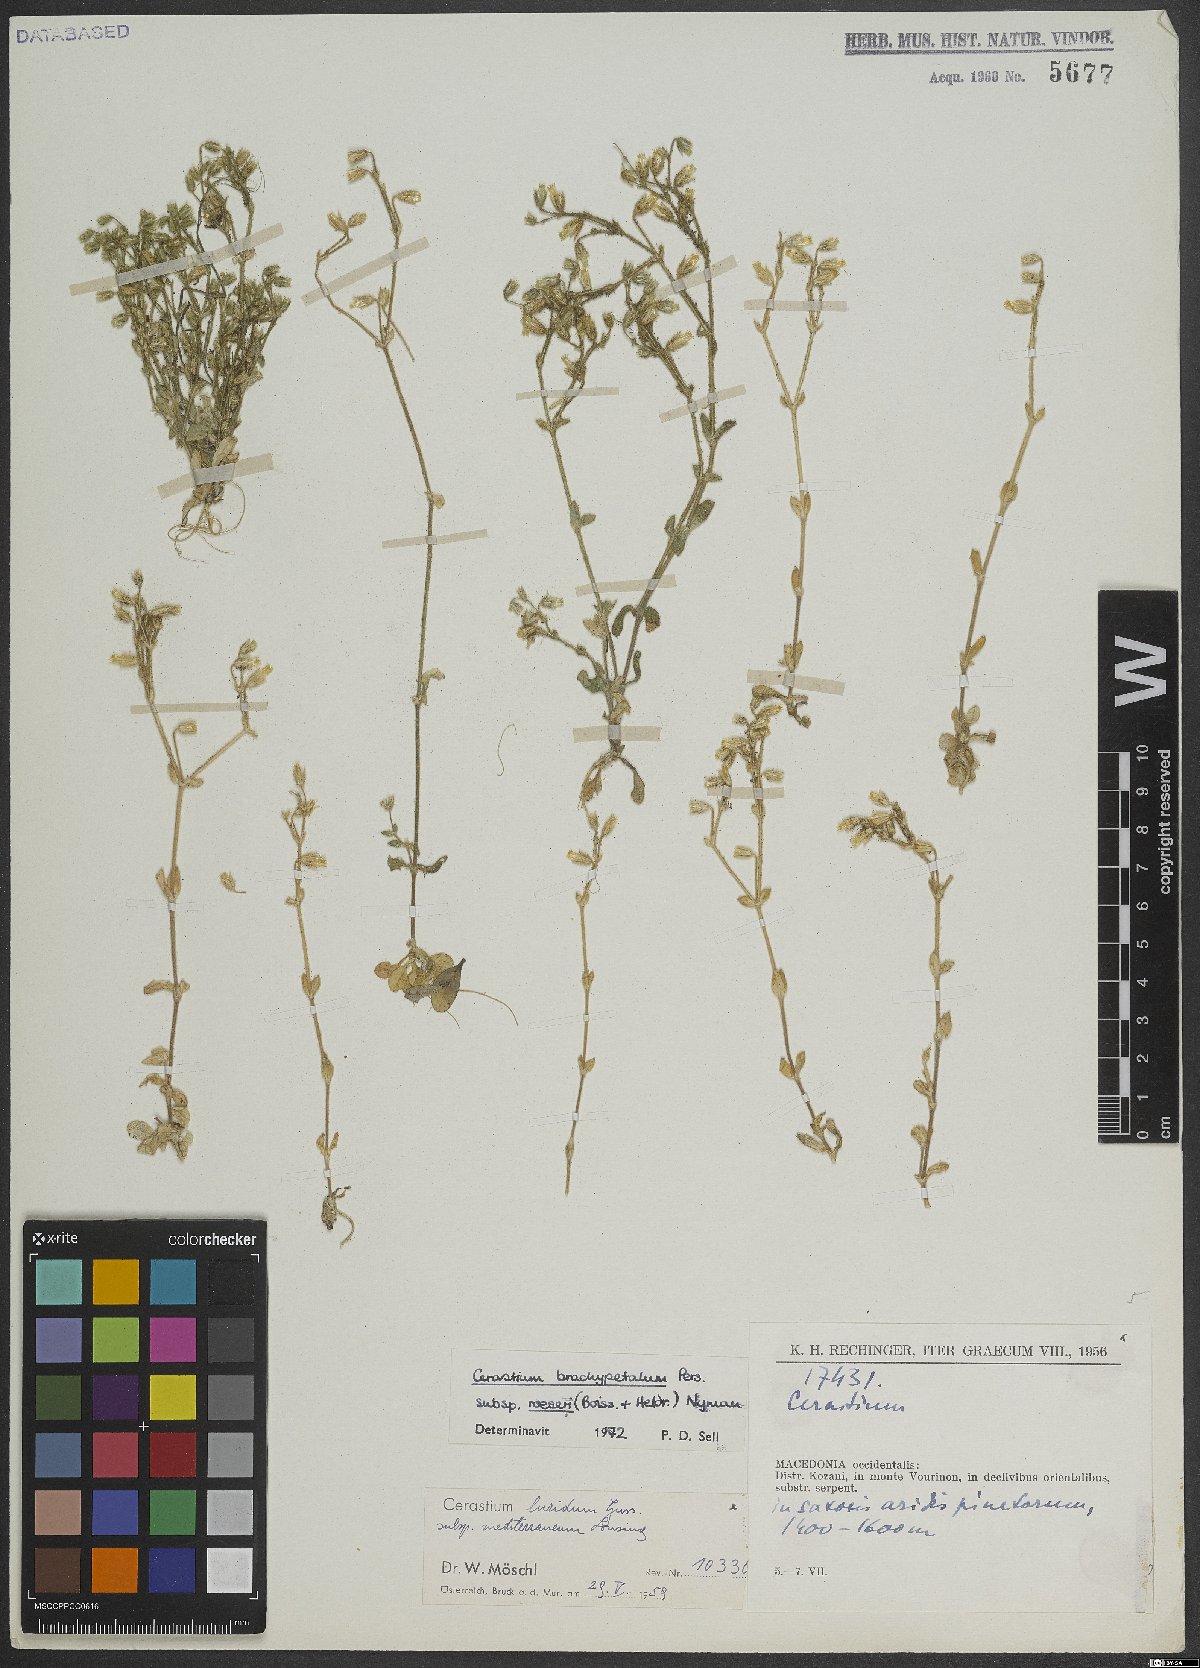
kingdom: Plantae
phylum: Tracheophyta
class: Magnoliopsida
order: Caryophyllales
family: Caryophyllaceae
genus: Cerastium
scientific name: Cerastium brachypetalum
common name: Grey mouse-ear
